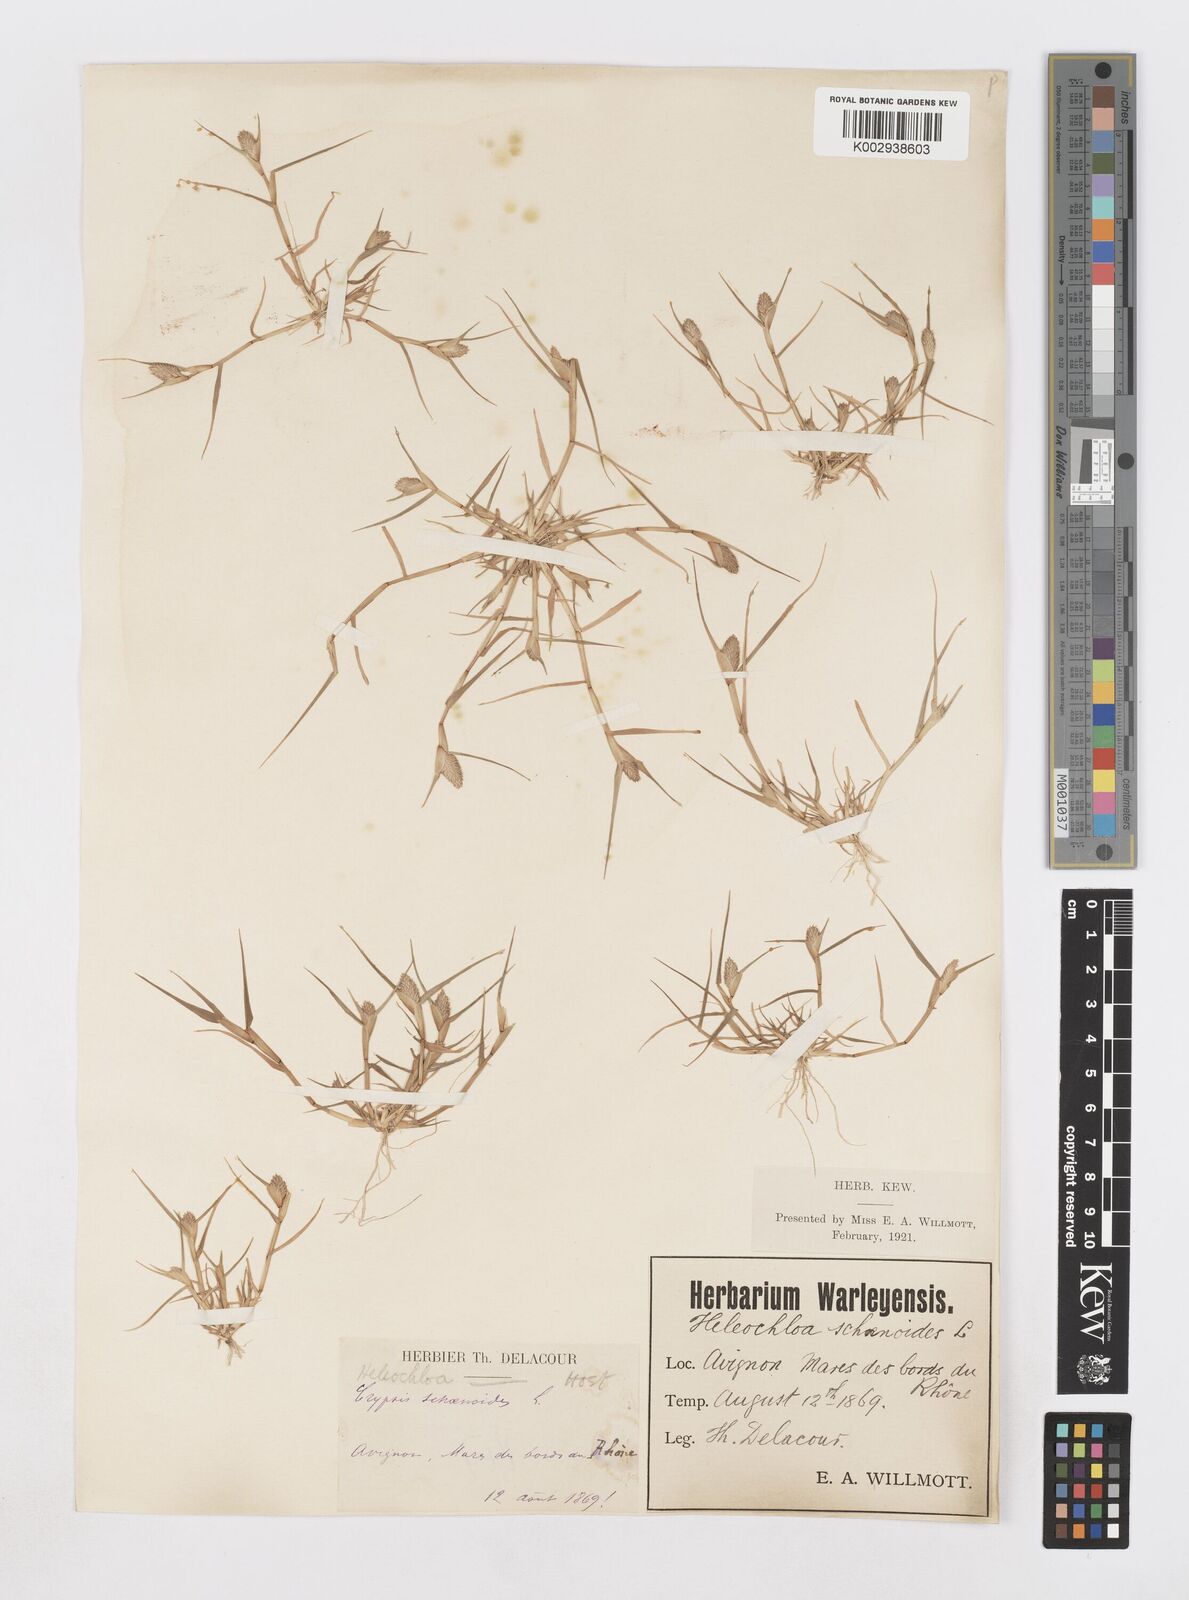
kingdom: Plantae
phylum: Tracheophyta
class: Liliopsida
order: Poales
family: Poaceae
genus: Sporobolus
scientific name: Sporobolus schoenoides
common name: Rush-like timothy
